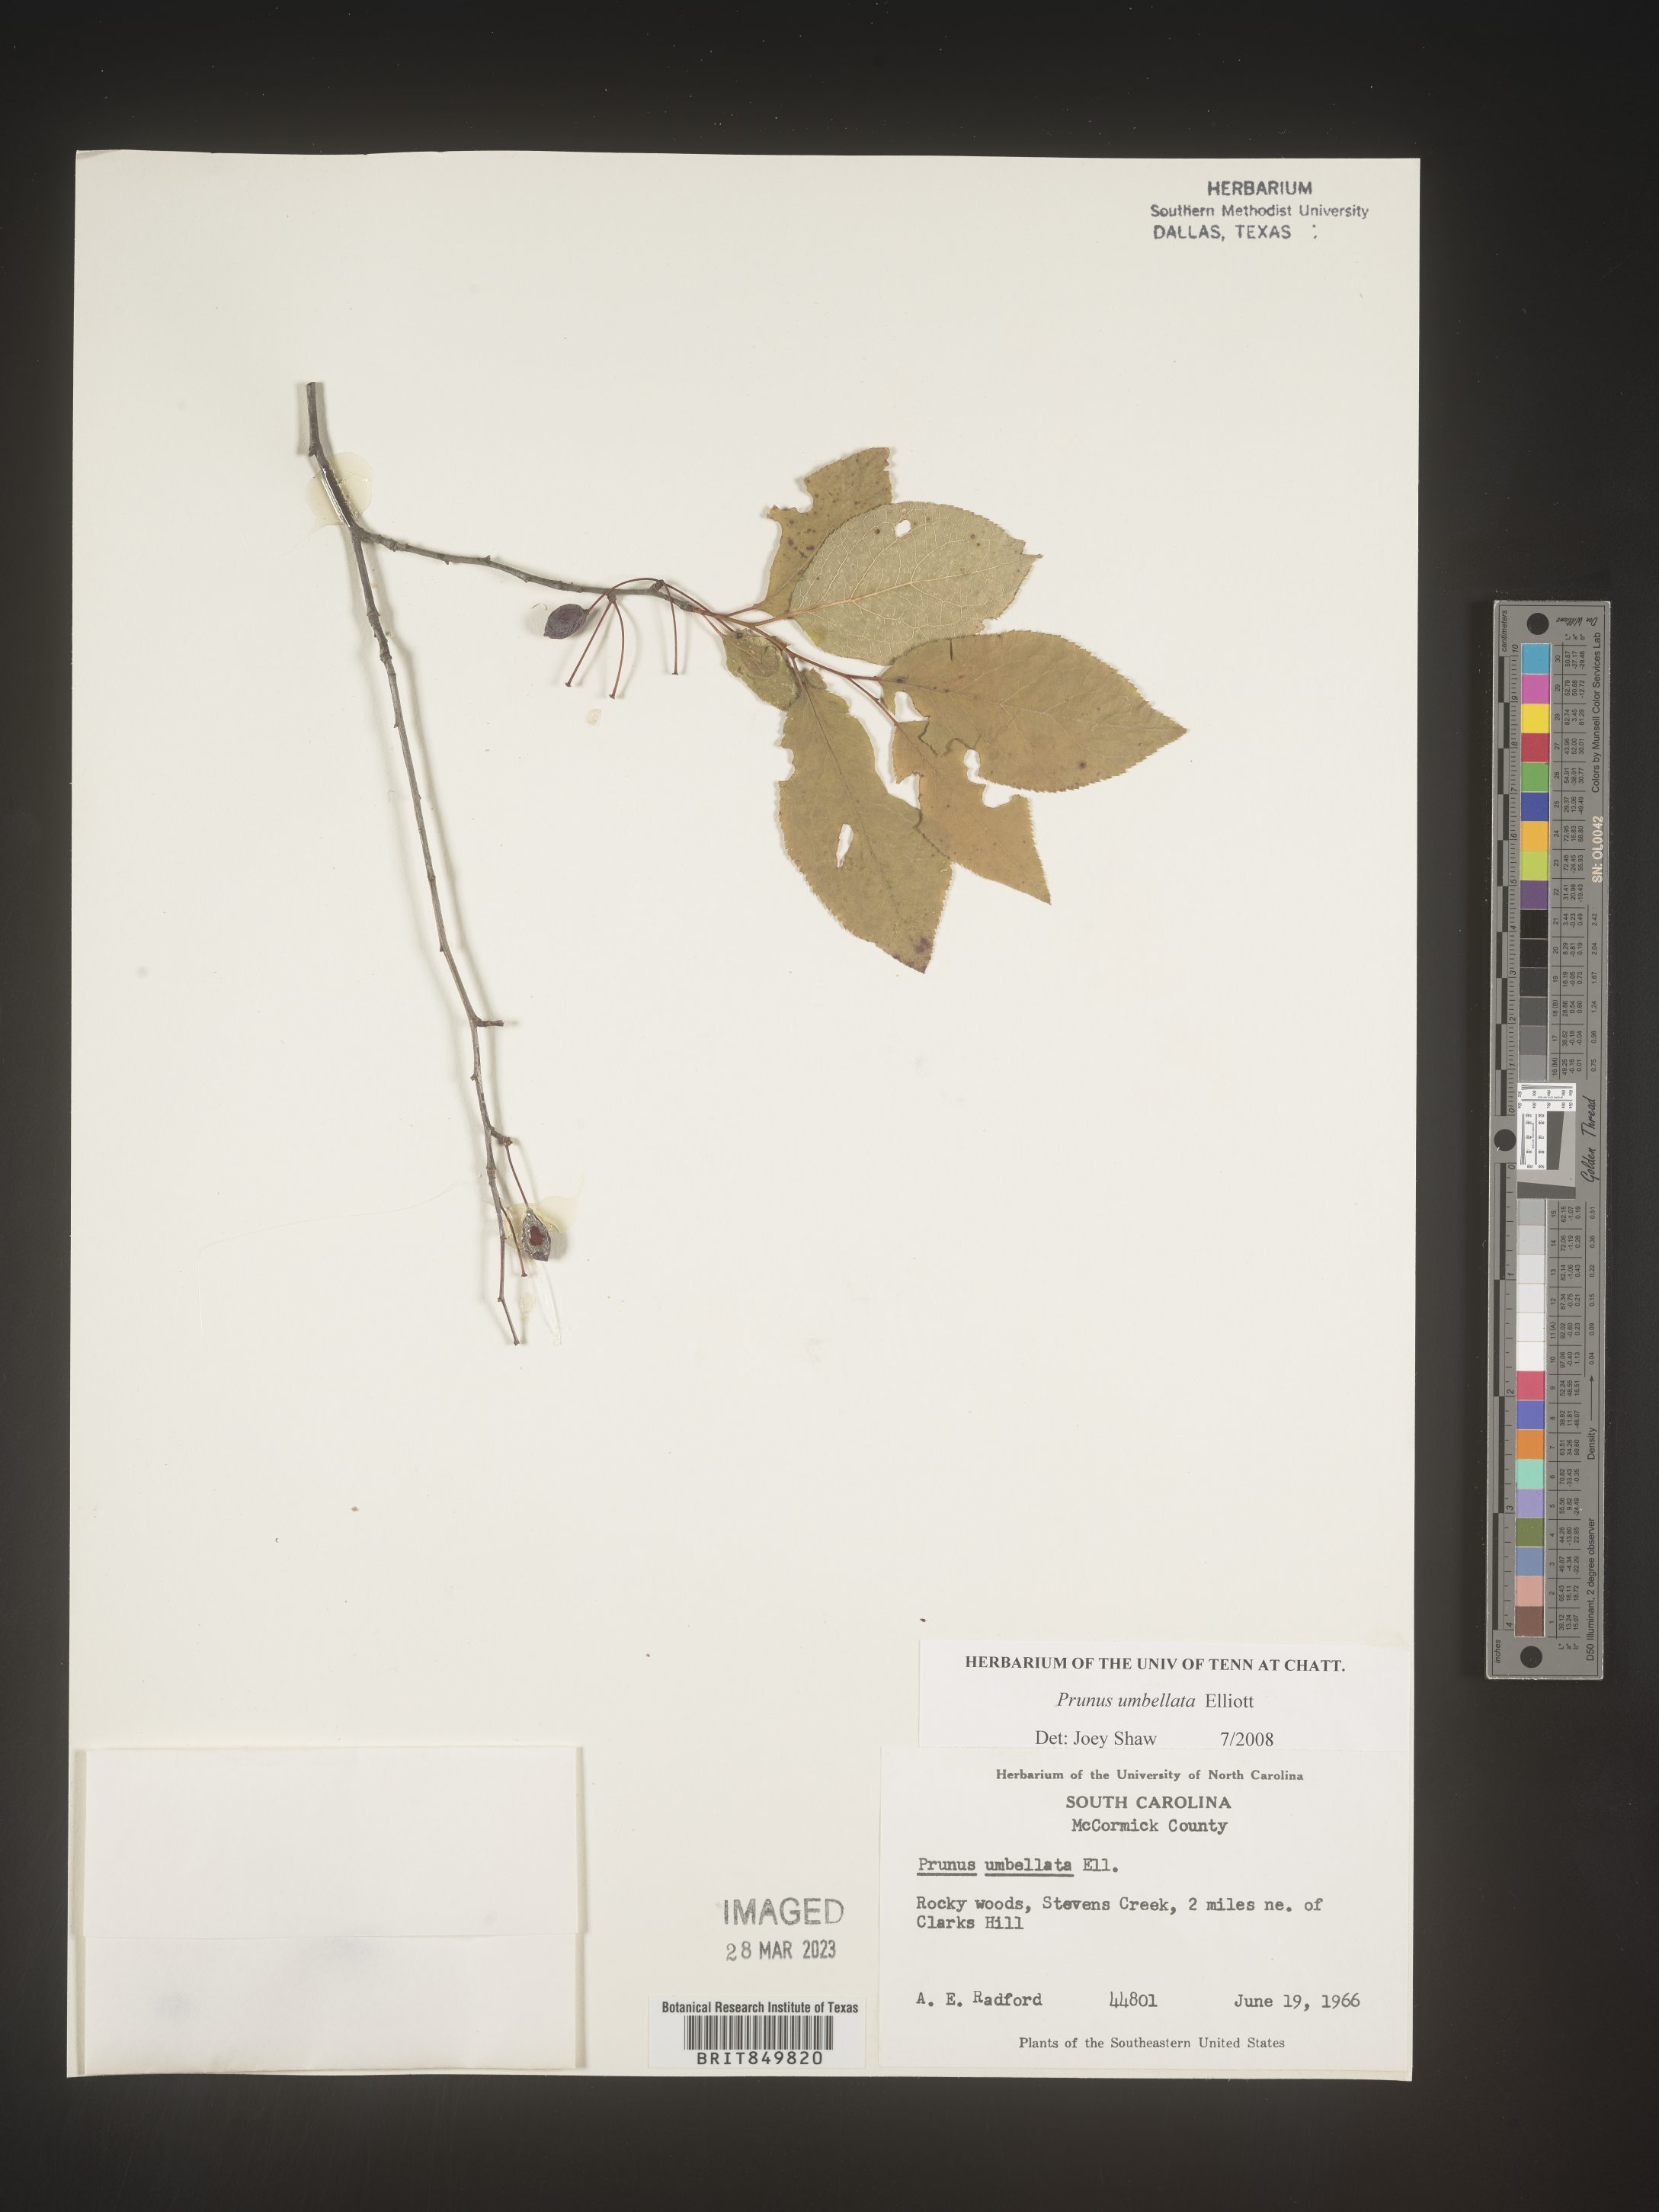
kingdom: Plantae
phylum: Tracheophyta
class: Magnoliopsida
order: Rosales
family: Rosaceae
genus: Prunus
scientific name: Prunus umbellata
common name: Allegheny plum
